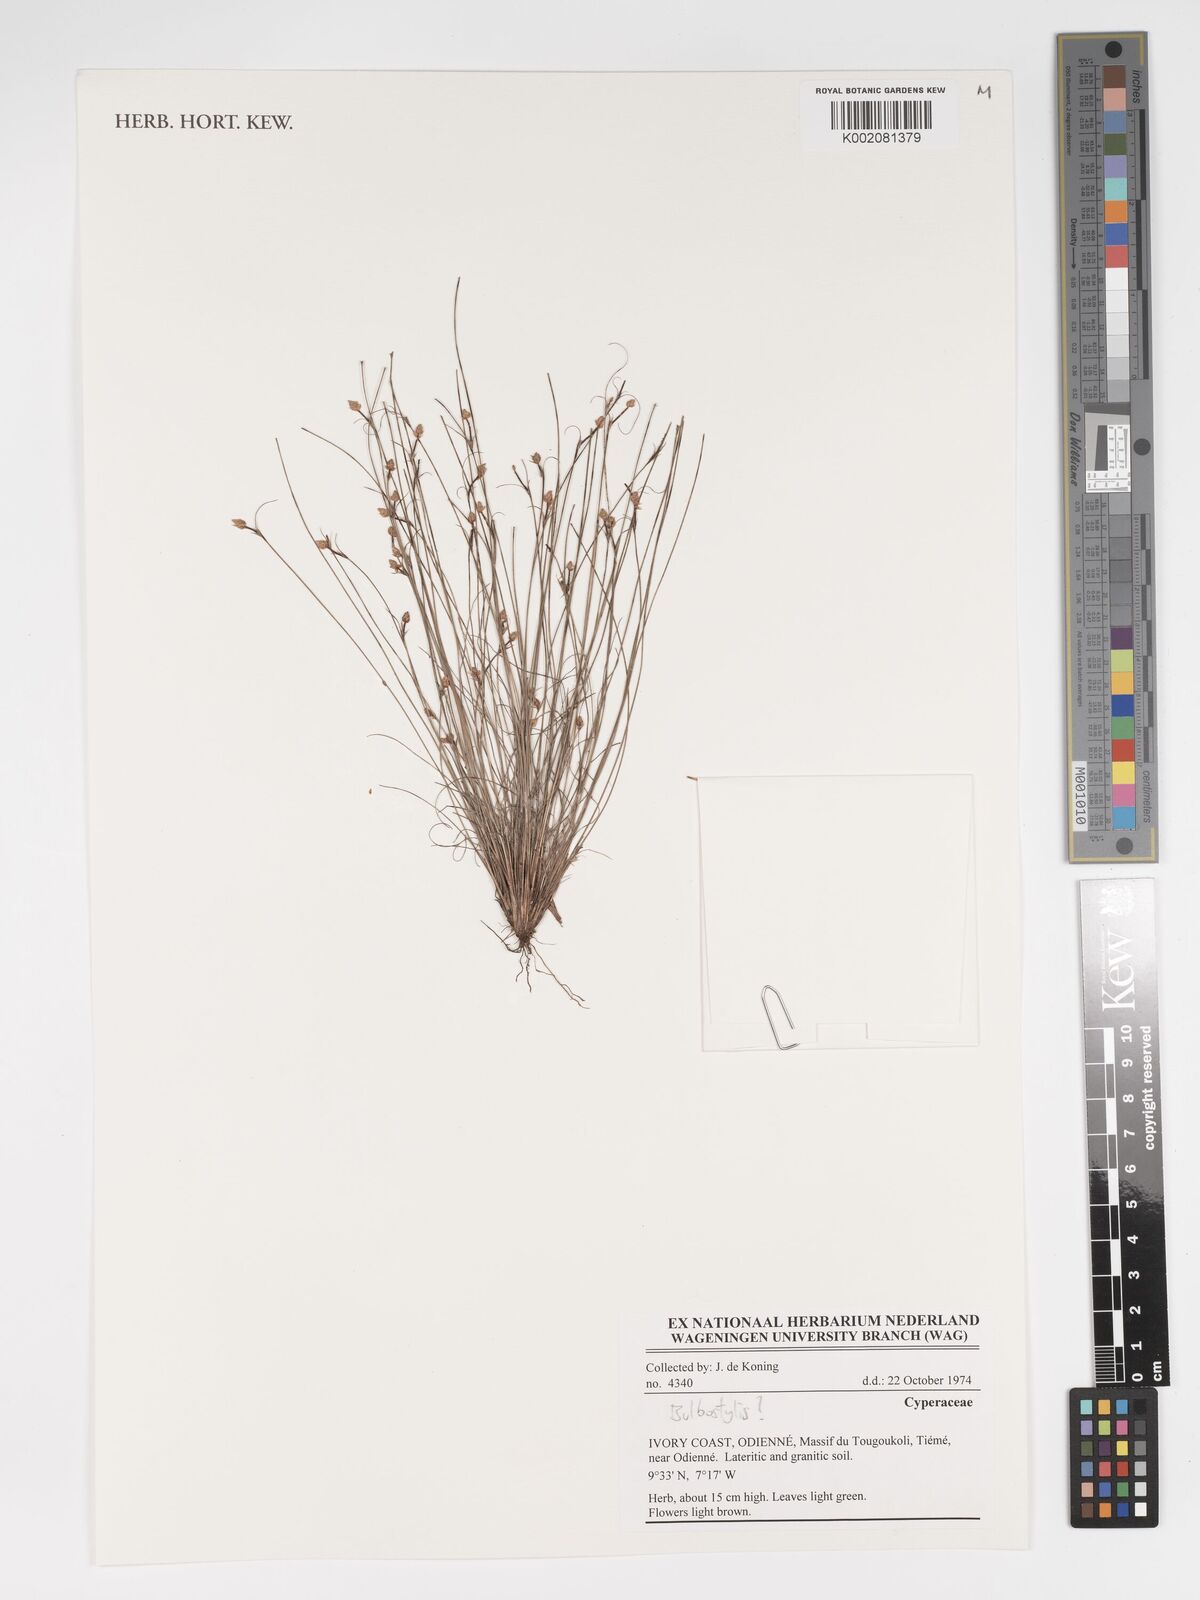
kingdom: Plantae
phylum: Tracheophyta
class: Liliopsida
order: Poales
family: Cyperaceae
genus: Bulbostylis
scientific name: Bulbostylis
